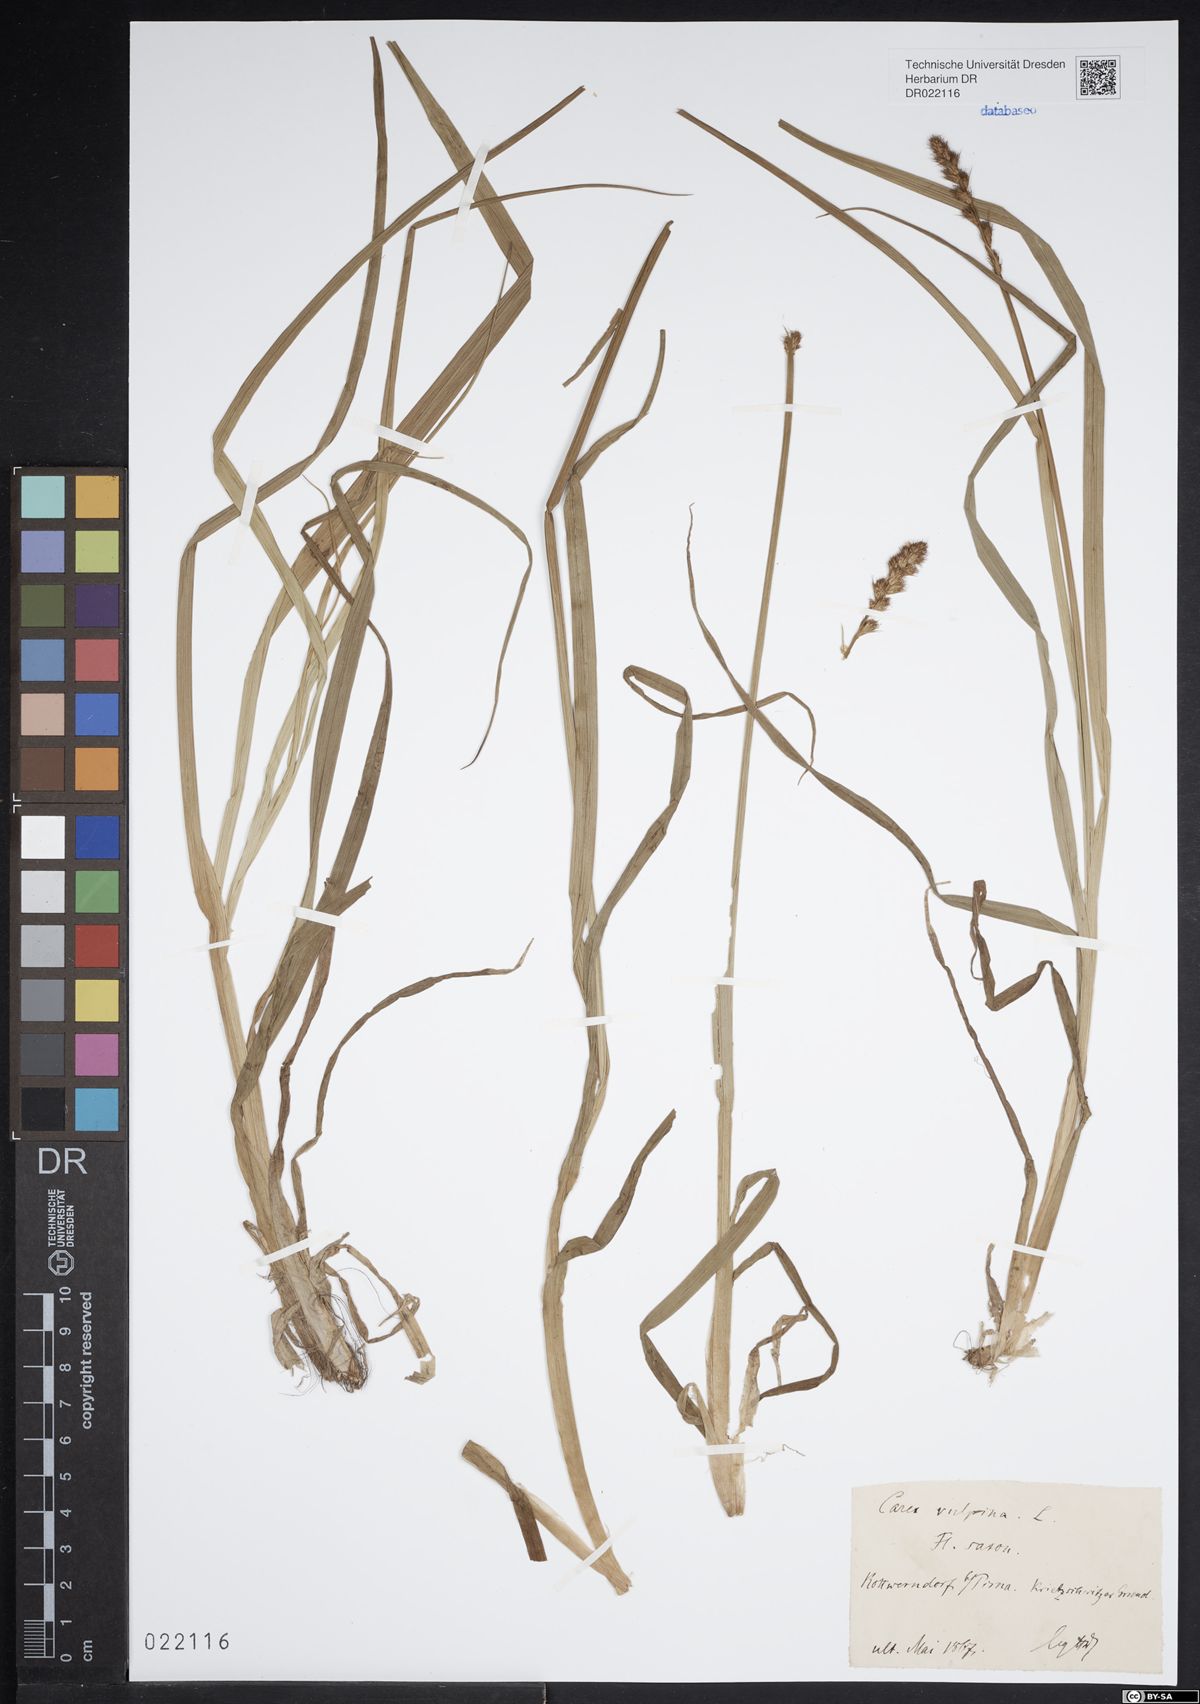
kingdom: Plantae
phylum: Tracheophyta
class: Liliopsida
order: Poales
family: Cyperaceae
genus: Carex
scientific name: Carex vulpina
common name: True fox-sedge
